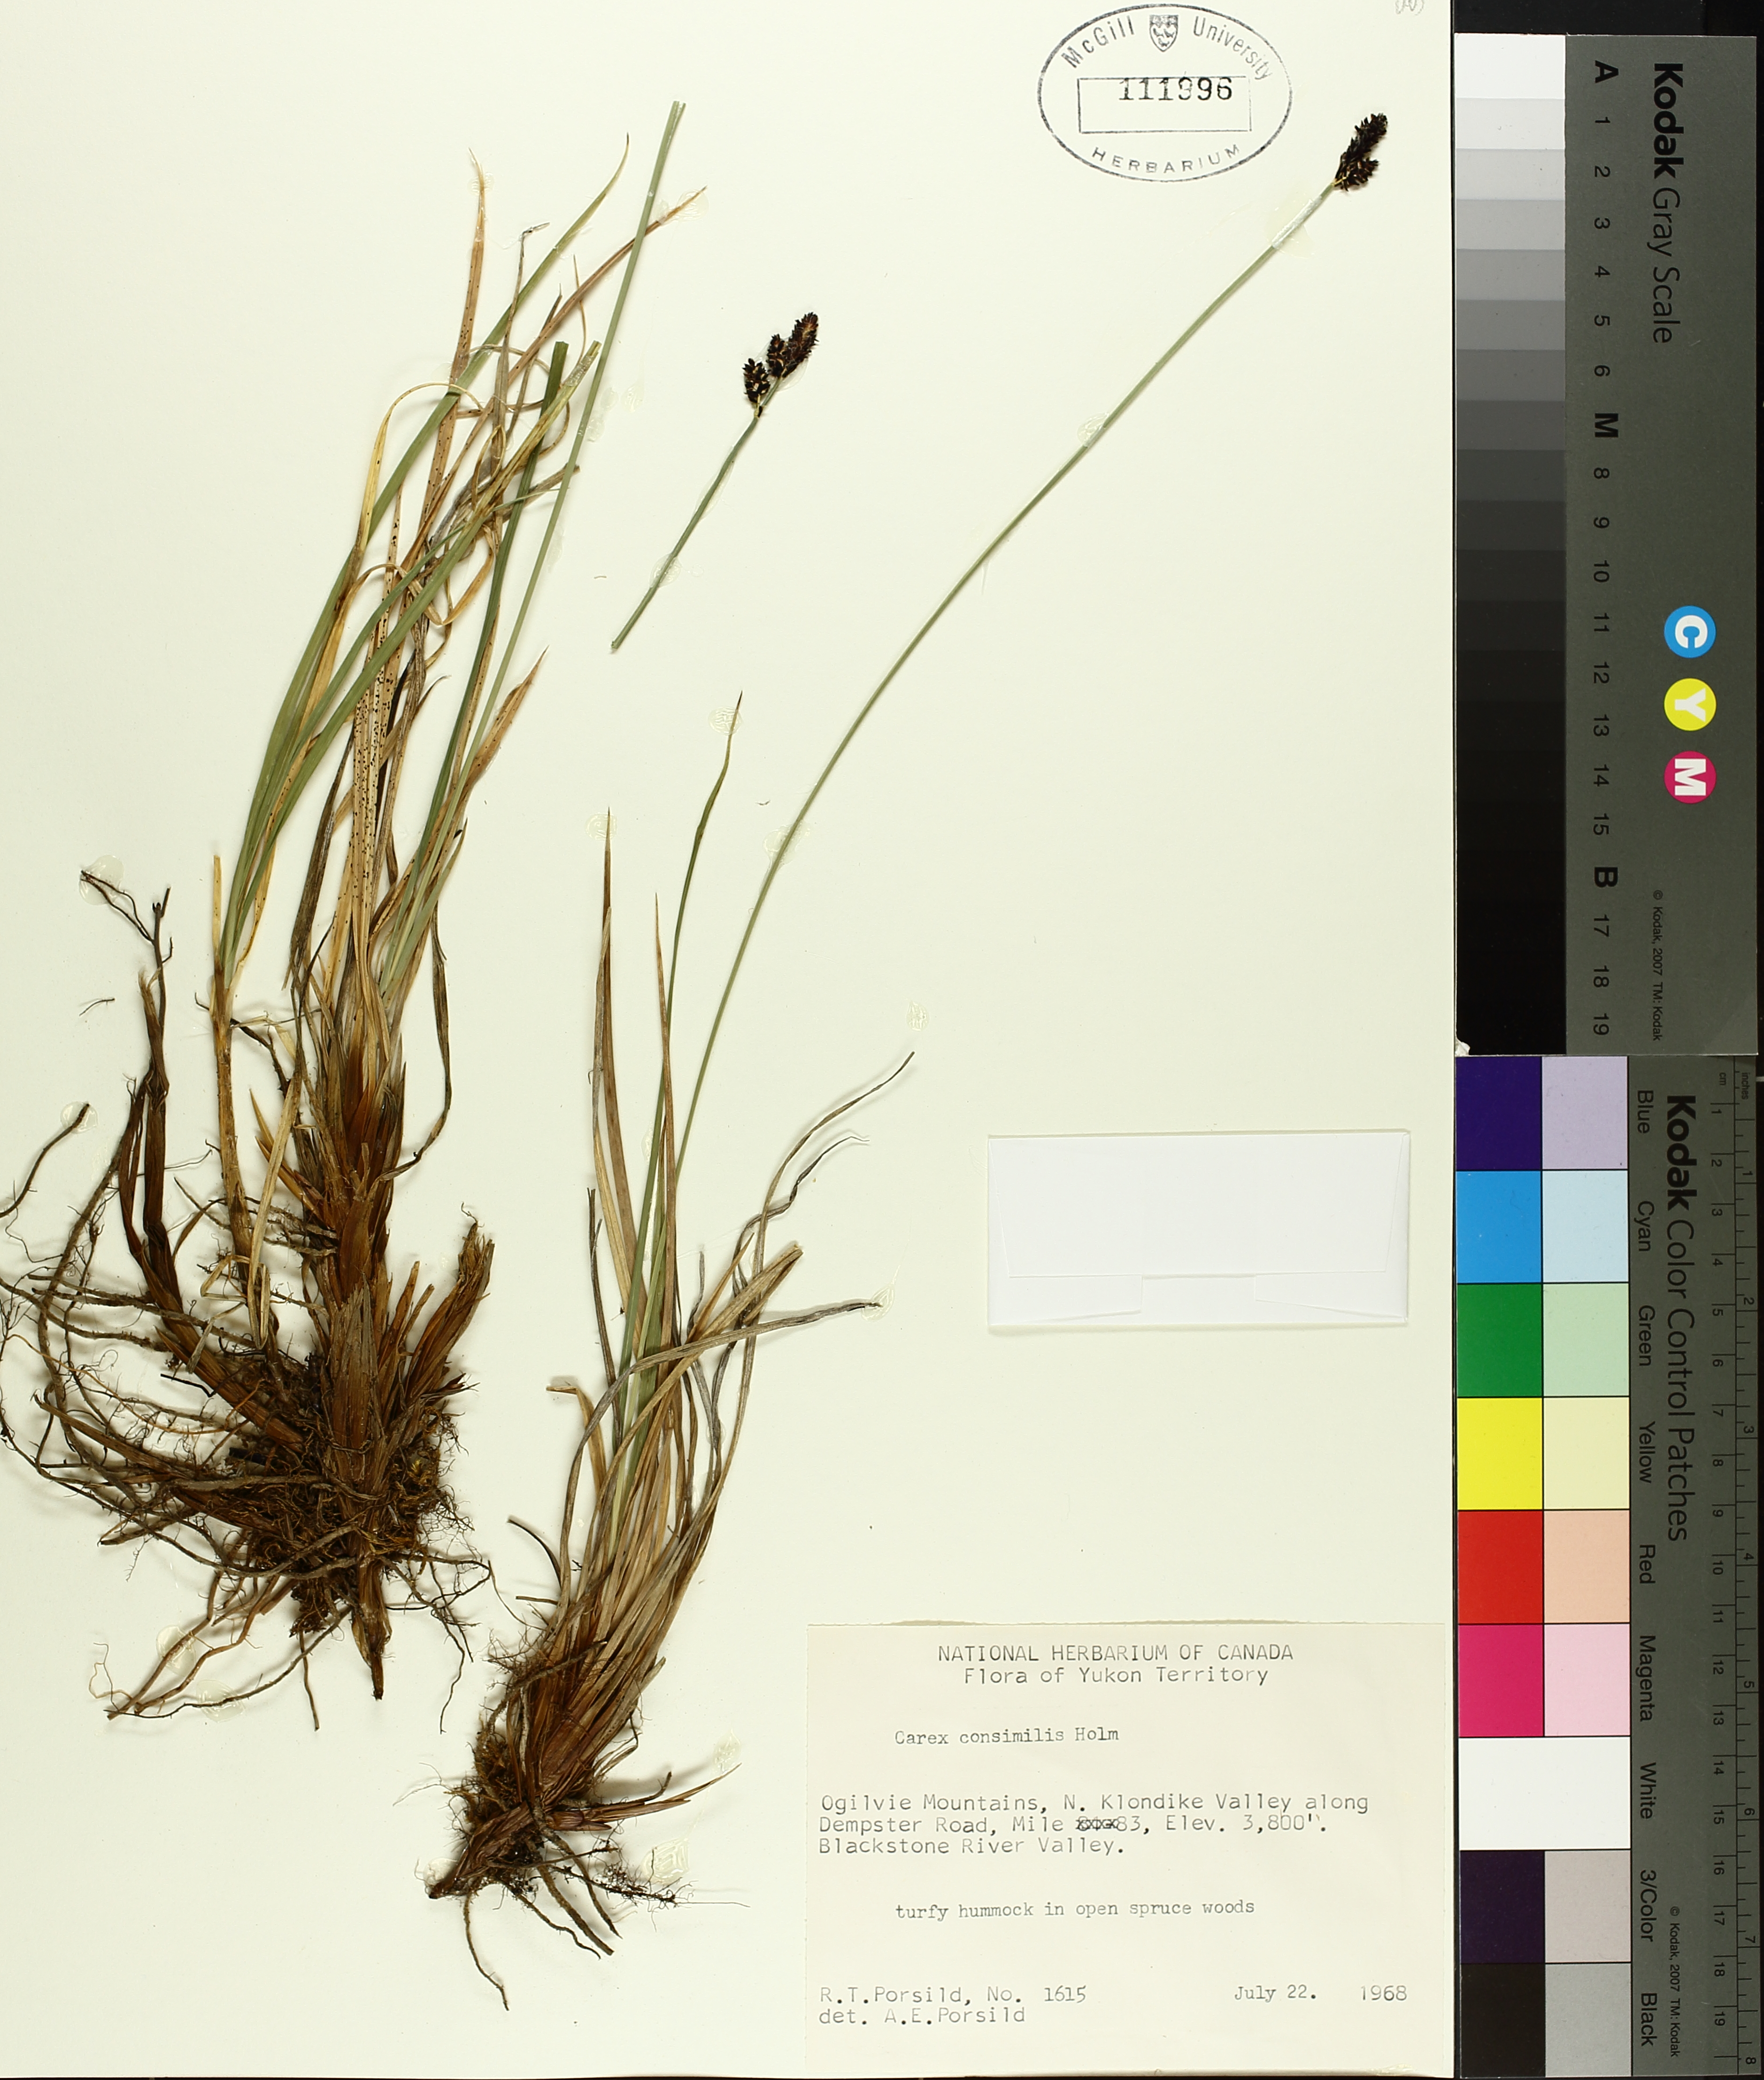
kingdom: Plantae
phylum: Tracheophyta
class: Liliopsida
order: Poales
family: Cyperaceae
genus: Carex
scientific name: Carex bigelowii
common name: Stiff sedge
